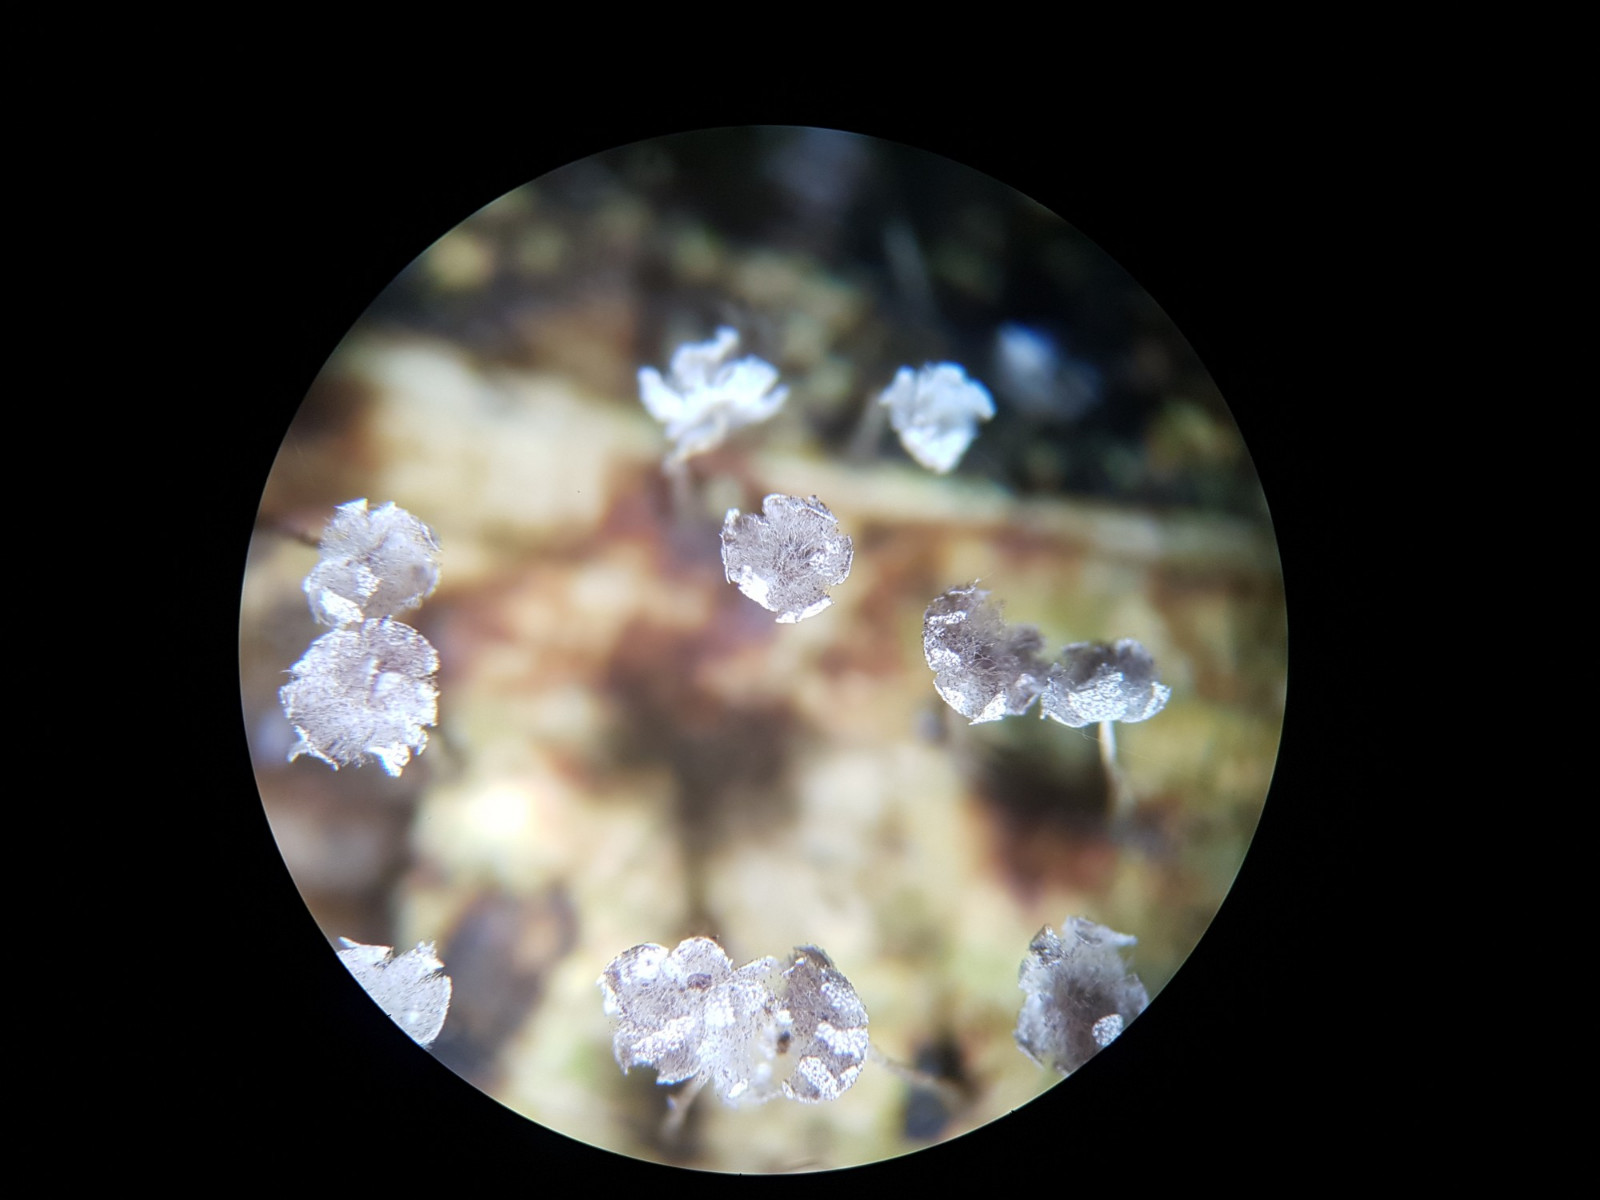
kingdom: Protozoa
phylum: Mycetozoa
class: Myxomycetes
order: Physarales
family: Physaraceae
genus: Physarum
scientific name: Physarum album
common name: nikkende støvknop
